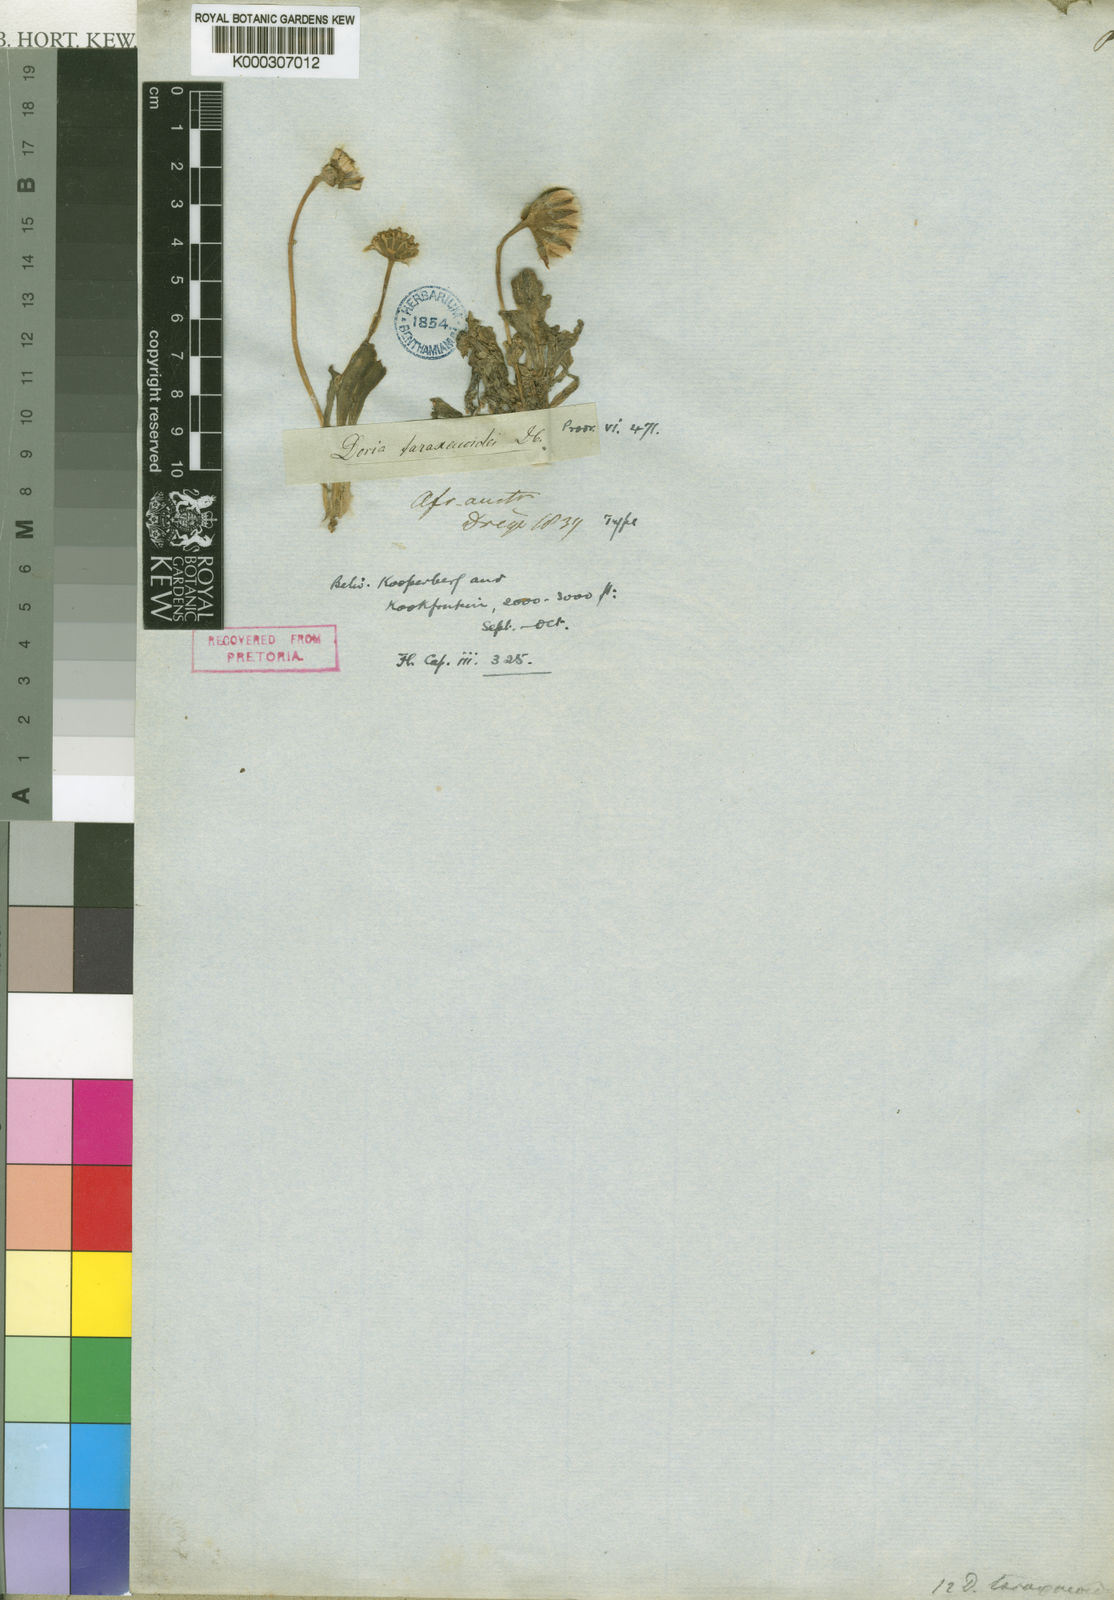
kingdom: Plantae
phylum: Tracheophyta
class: Magnoliopsida
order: Asterales
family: Asteraceae
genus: Othonna
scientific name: Othonna taraxacoides
